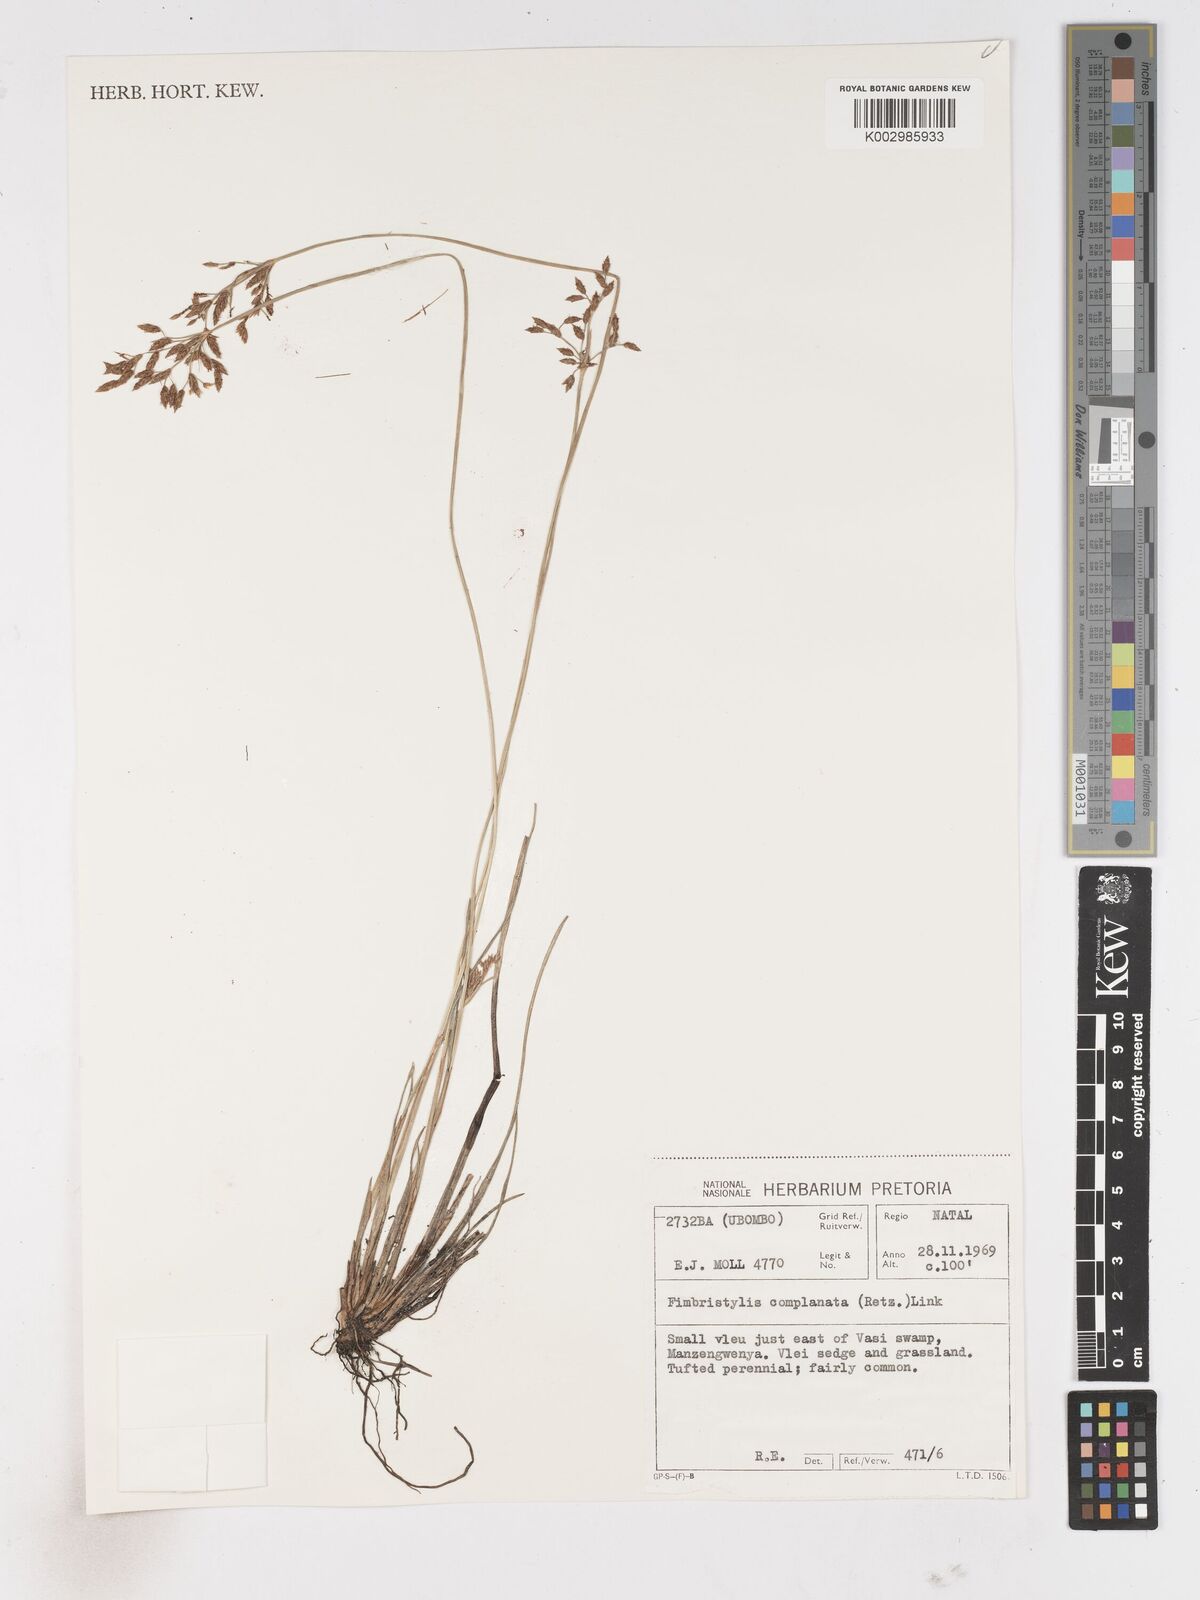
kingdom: Plantae
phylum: Tracheophyta
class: Liliopsida
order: Poales
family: Cyperaceae
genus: Fimbristylis
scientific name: Fimbristylis complanata
